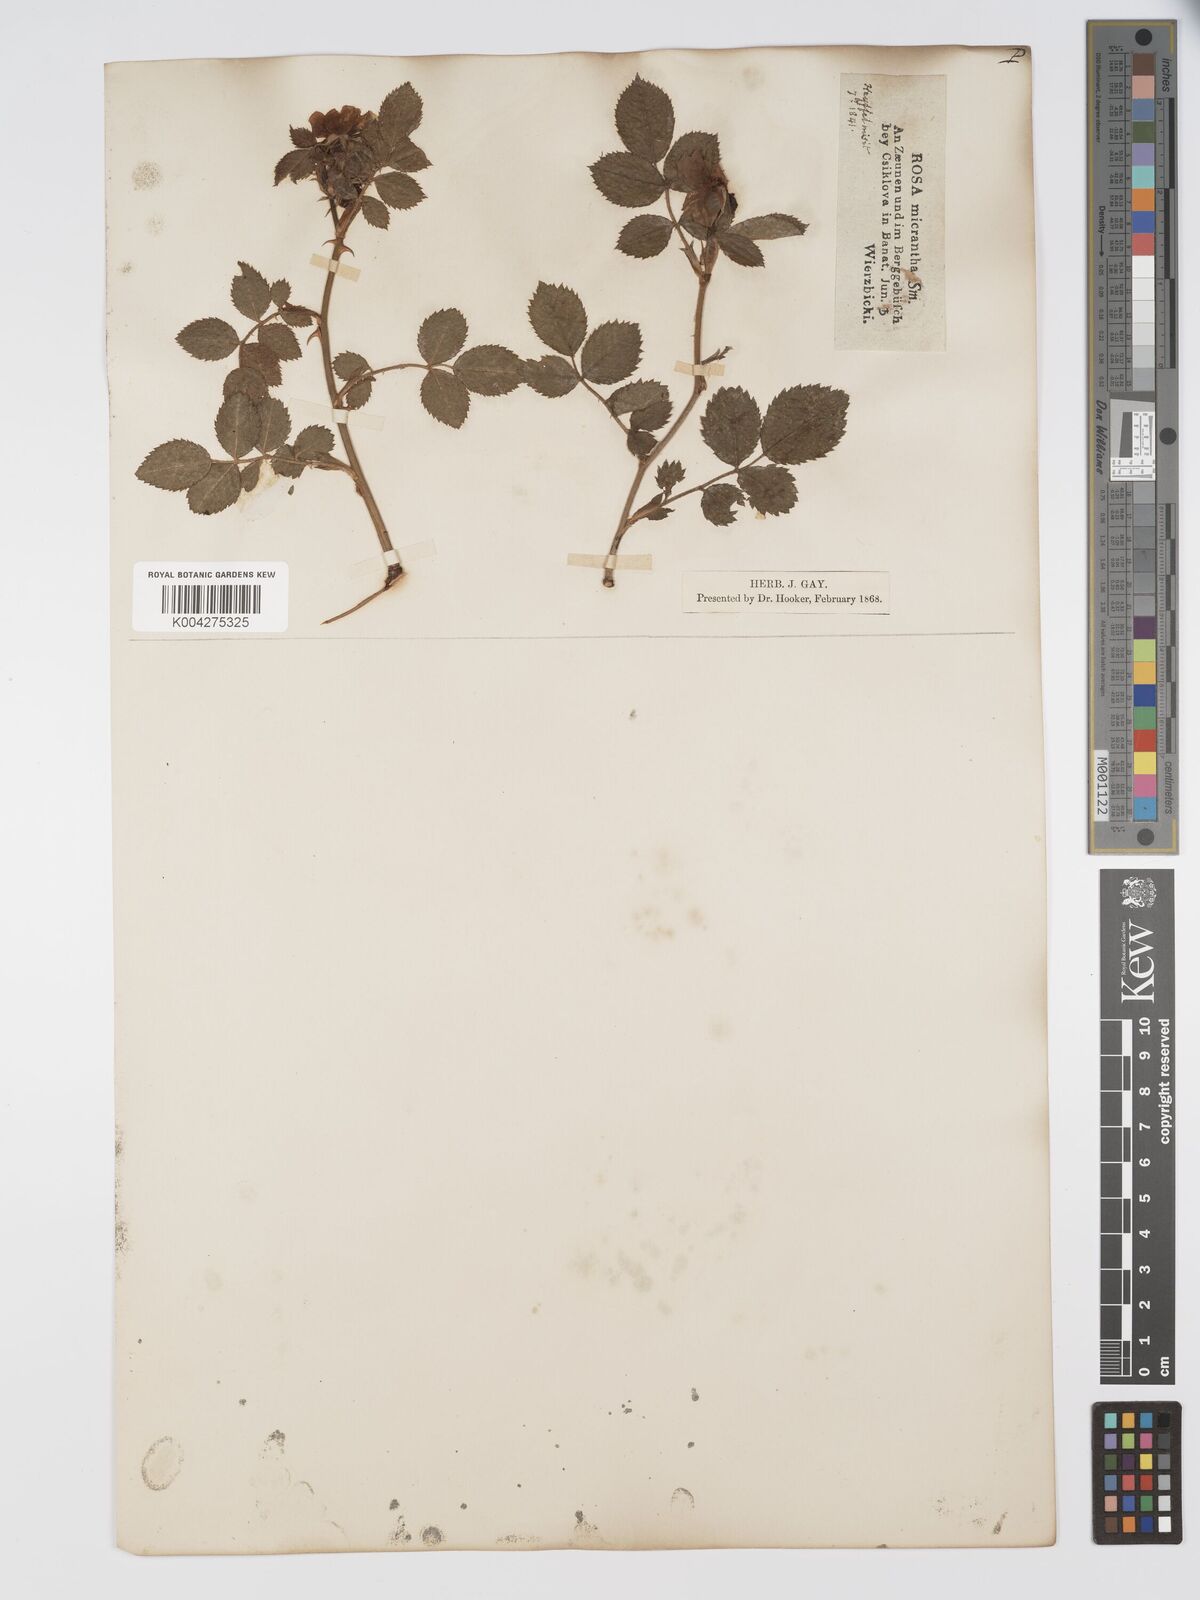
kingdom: Plantae
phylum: Tracheophyta
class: Magnoliopsida
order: Rosales
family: Rosaceae
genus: Rosa
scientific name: Rosa
